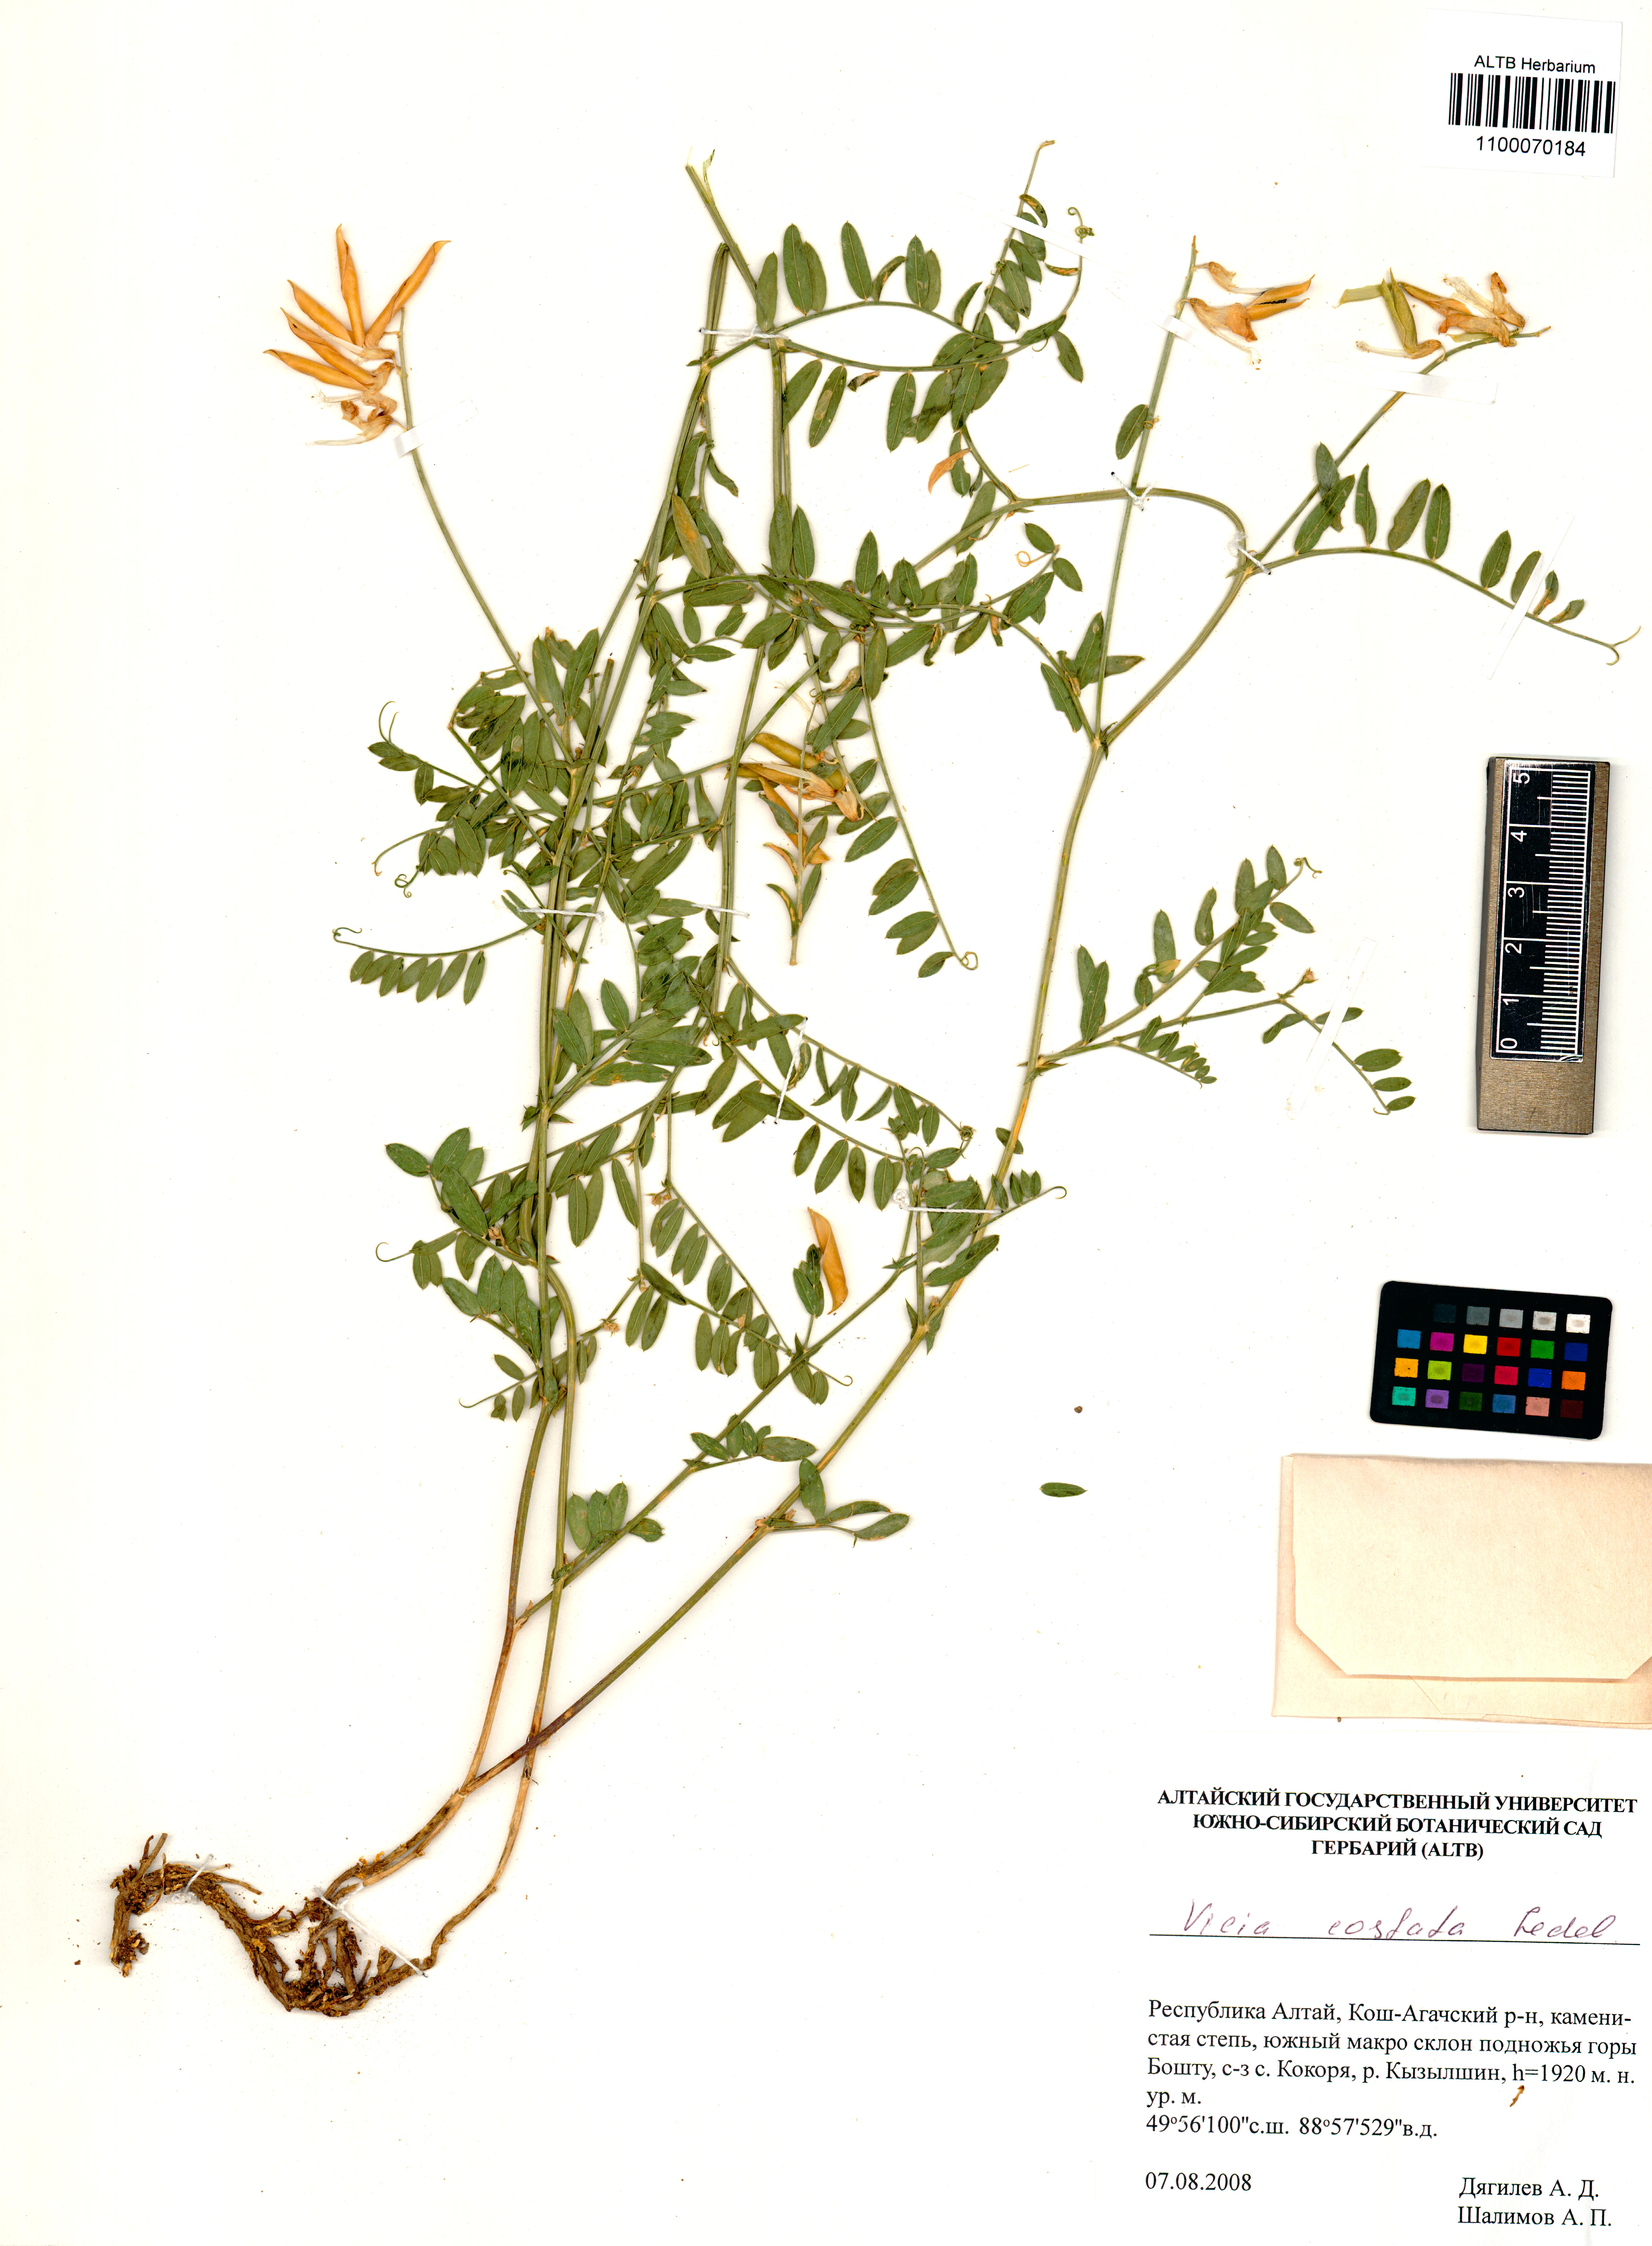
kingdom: Plantae
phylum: Tracheophyta
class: Magnoliopsida
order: Fabales
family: Fabaceae
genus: Vicia
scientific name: Vicia costata
